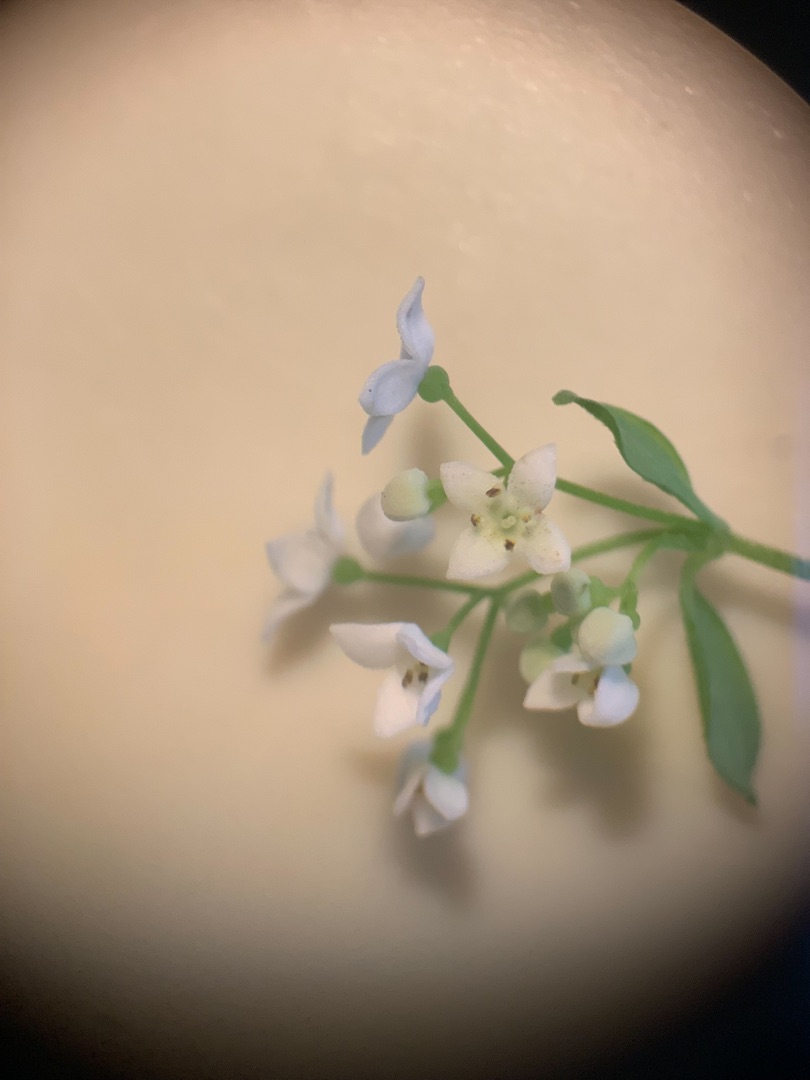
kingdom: Plantae
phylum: Tracheophyta
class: Magnoliopsida
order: Gentianales
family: Rubiaceae
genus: Galium
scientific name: Galium palustre
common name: Kær-snerre
